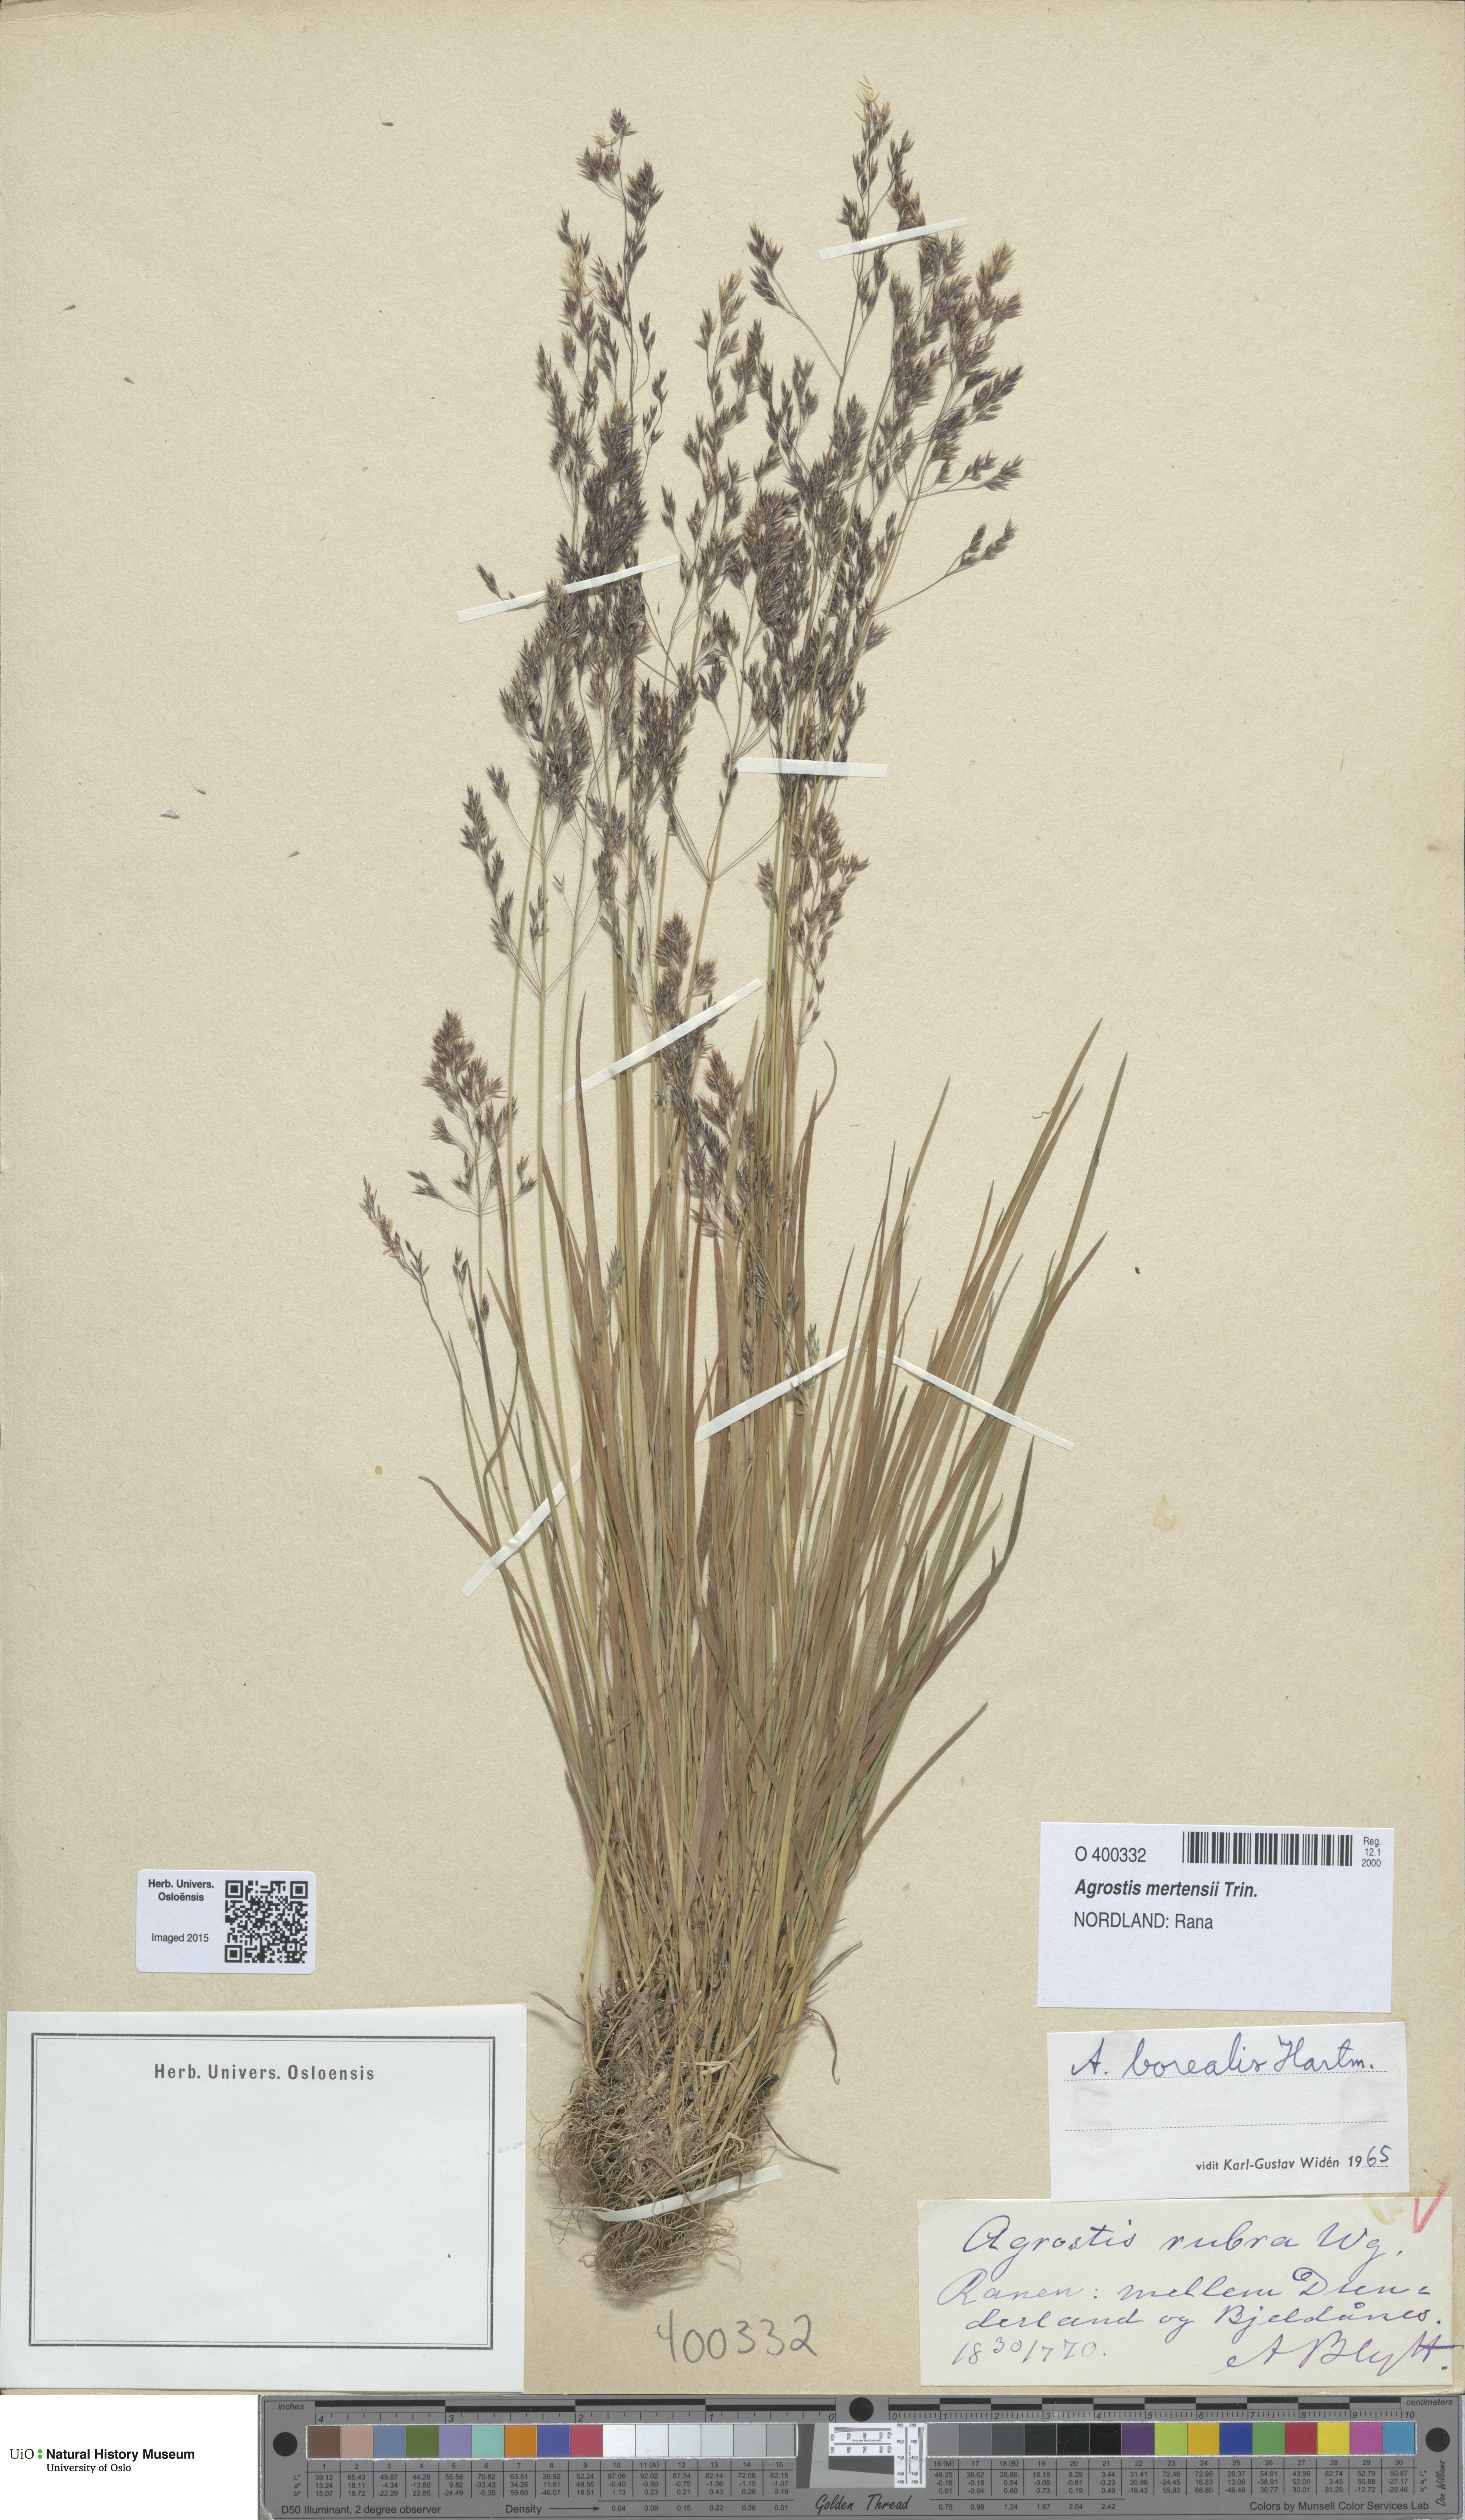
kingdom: Plantae
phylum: Tracheophyta
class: Liliopsida
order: Poales
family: Poaceae
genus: Agrostis
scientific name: Agrostis mertensii
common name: Northern bent
